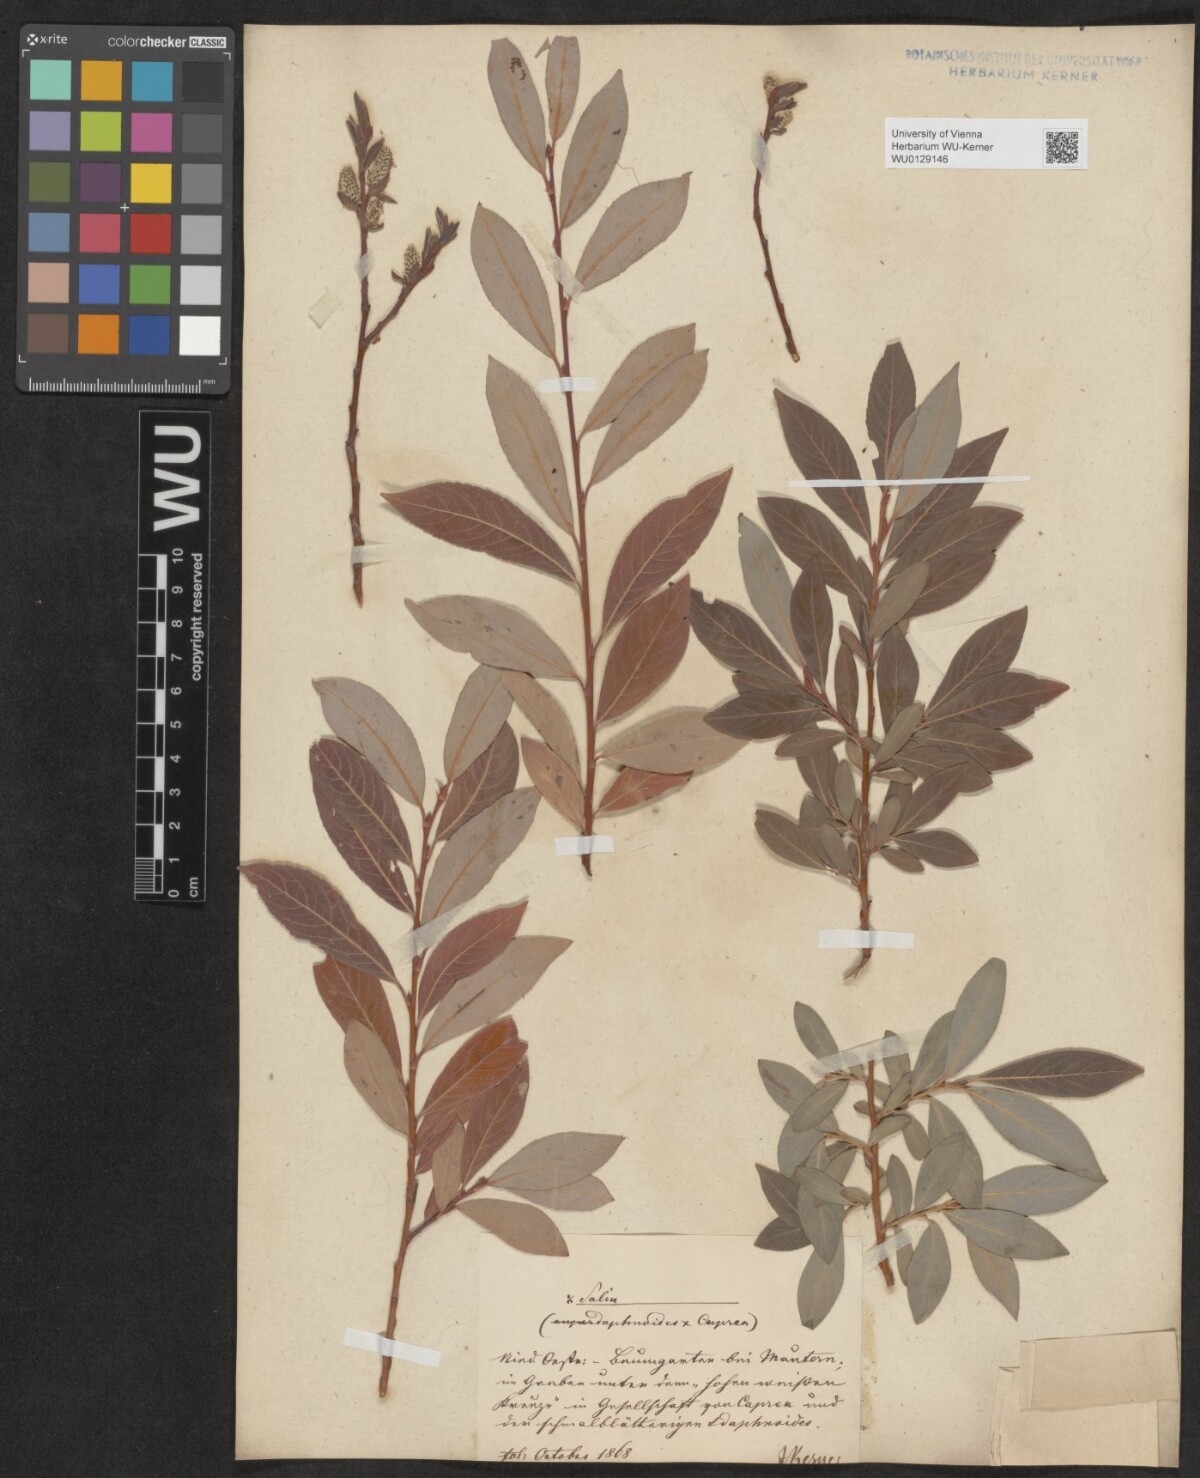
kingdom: Plantae
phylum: Tracheophyta
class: Magnoliopsida
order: Malpighiales
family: Salicaceae
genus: Salix
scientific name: Salix erdingeri
